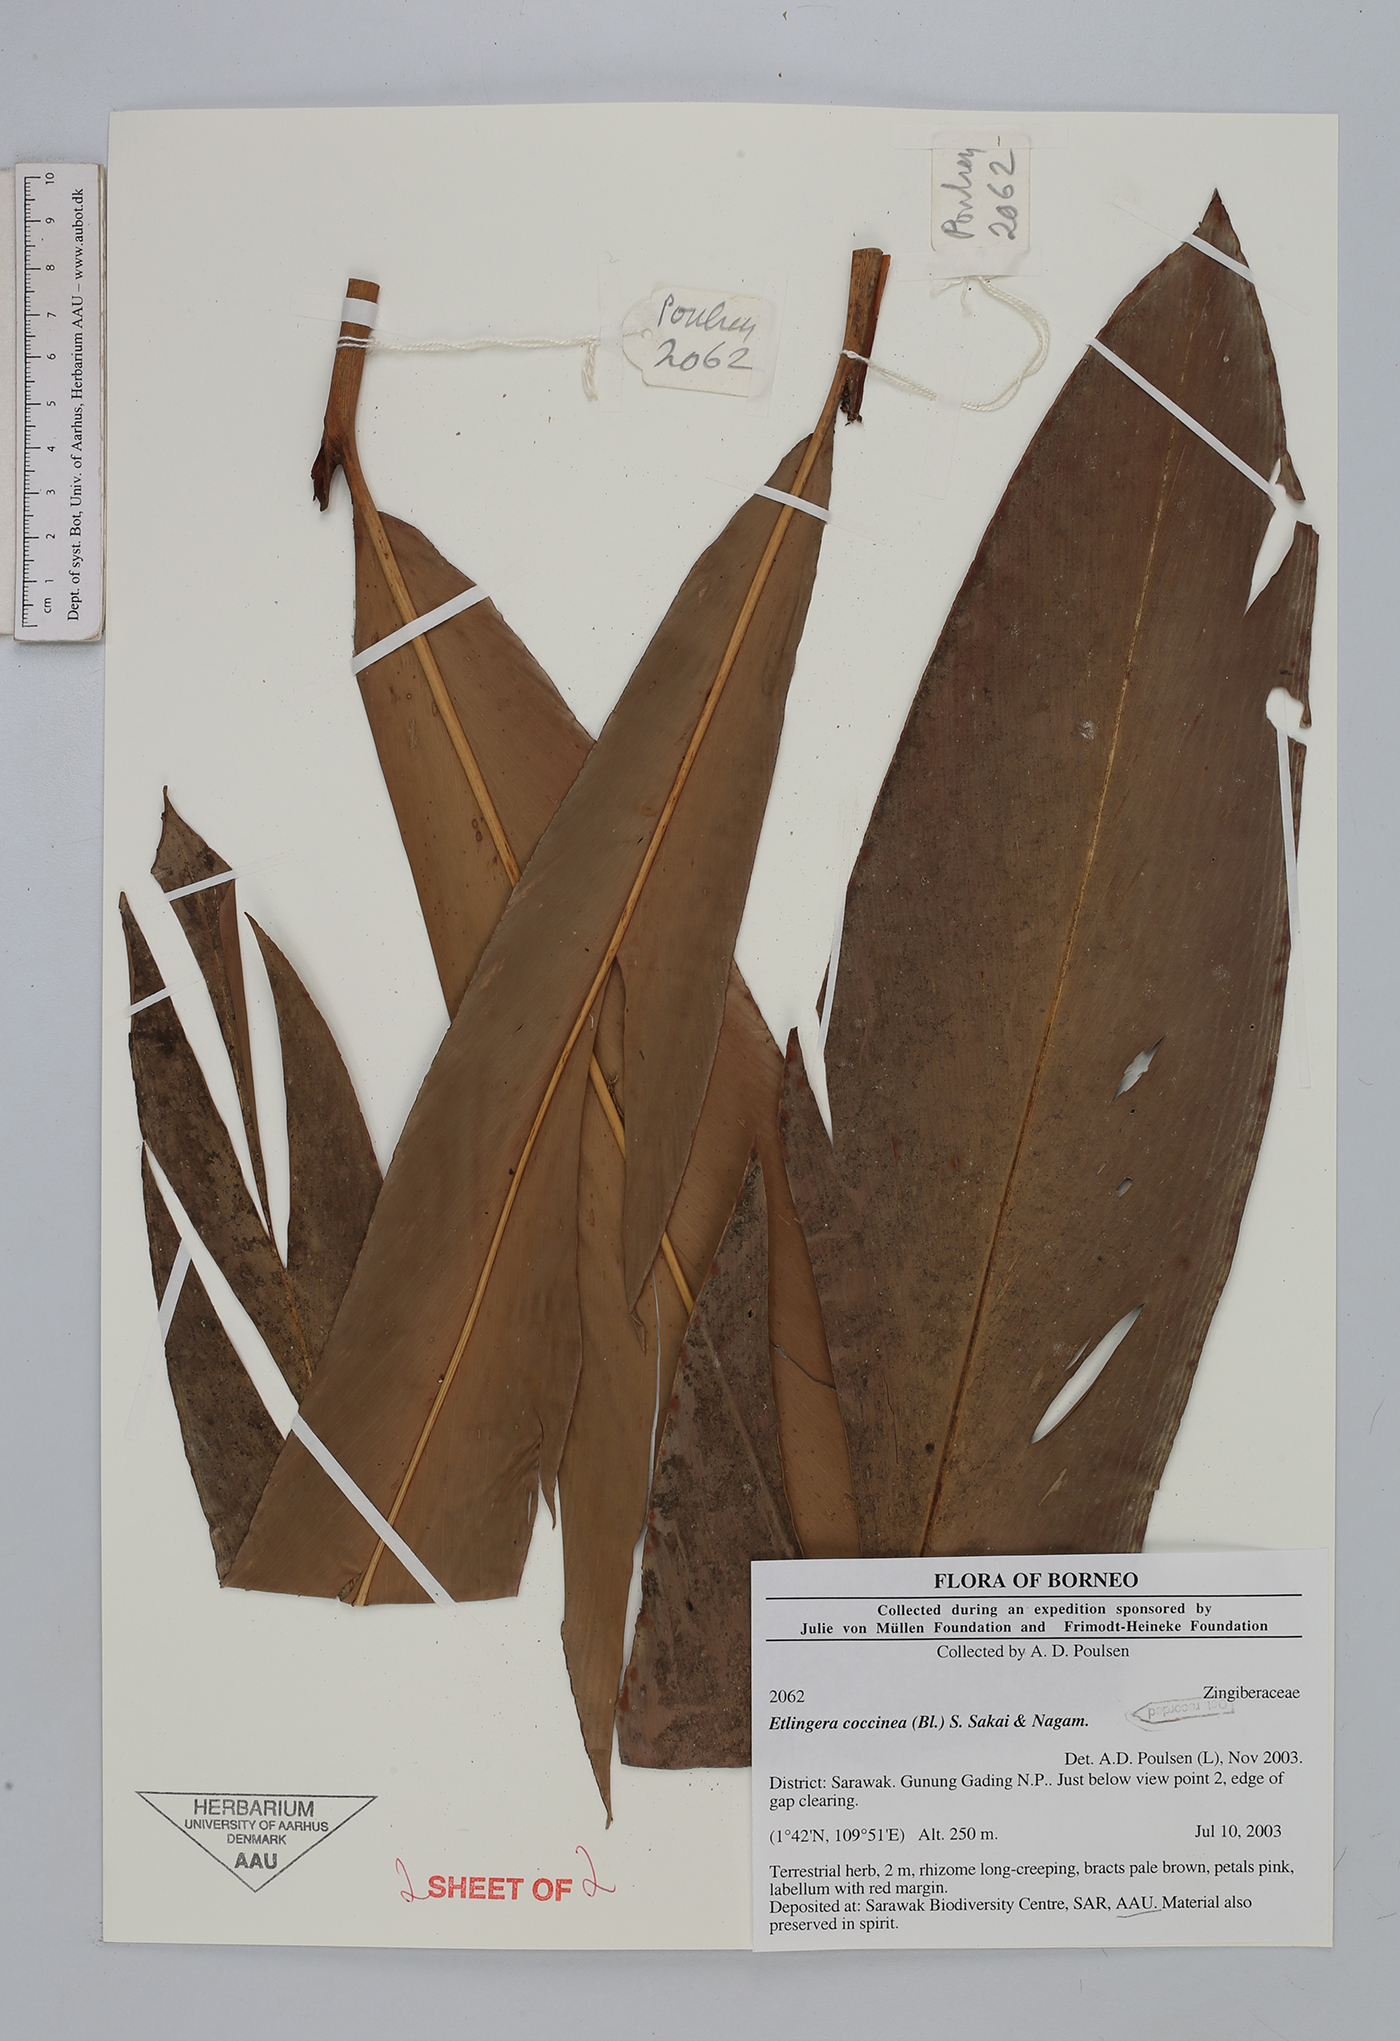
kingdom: Plantae
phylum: Tracheophyta
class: Liliopsida
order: Zingiberales
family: Zingiberaceae
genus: Etlingera
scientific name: Etlingera coccinea
